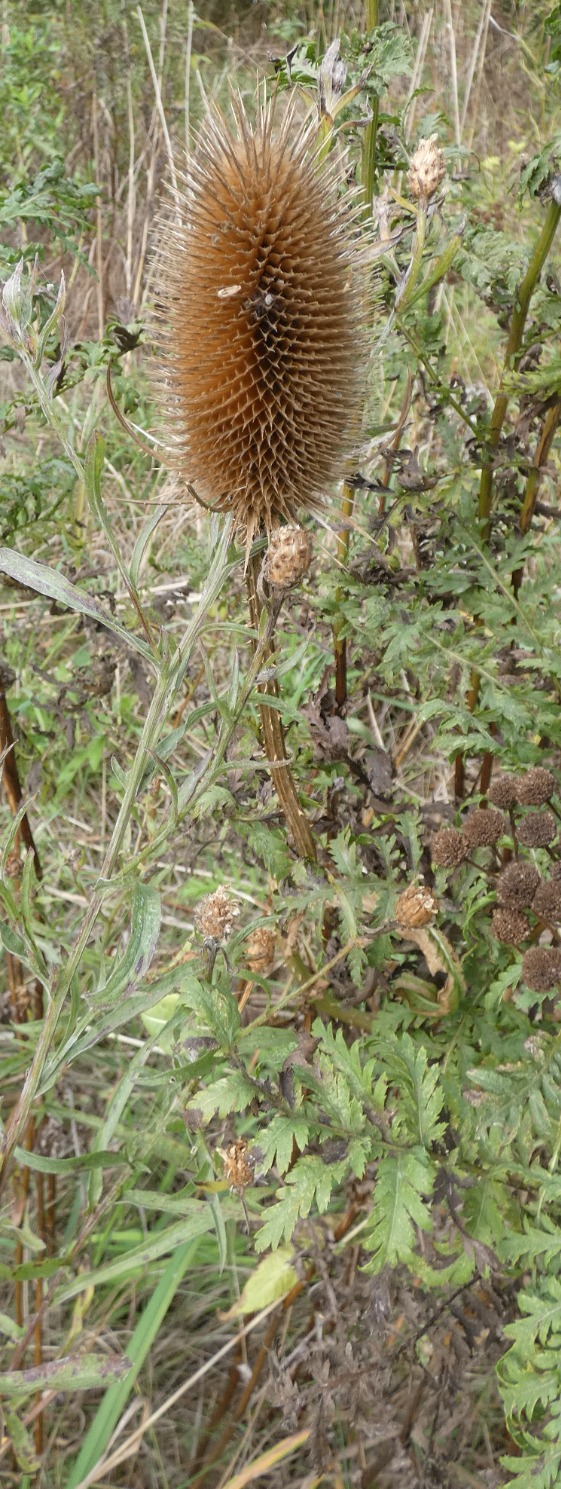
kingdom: Plantae
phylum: Tracheophyta
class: Magnoliopsida
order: Dipsacales
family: Caprifoliaceae
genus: Dipsacus
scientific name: Dipsacus fullonum
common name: Gærde-kartebolle
